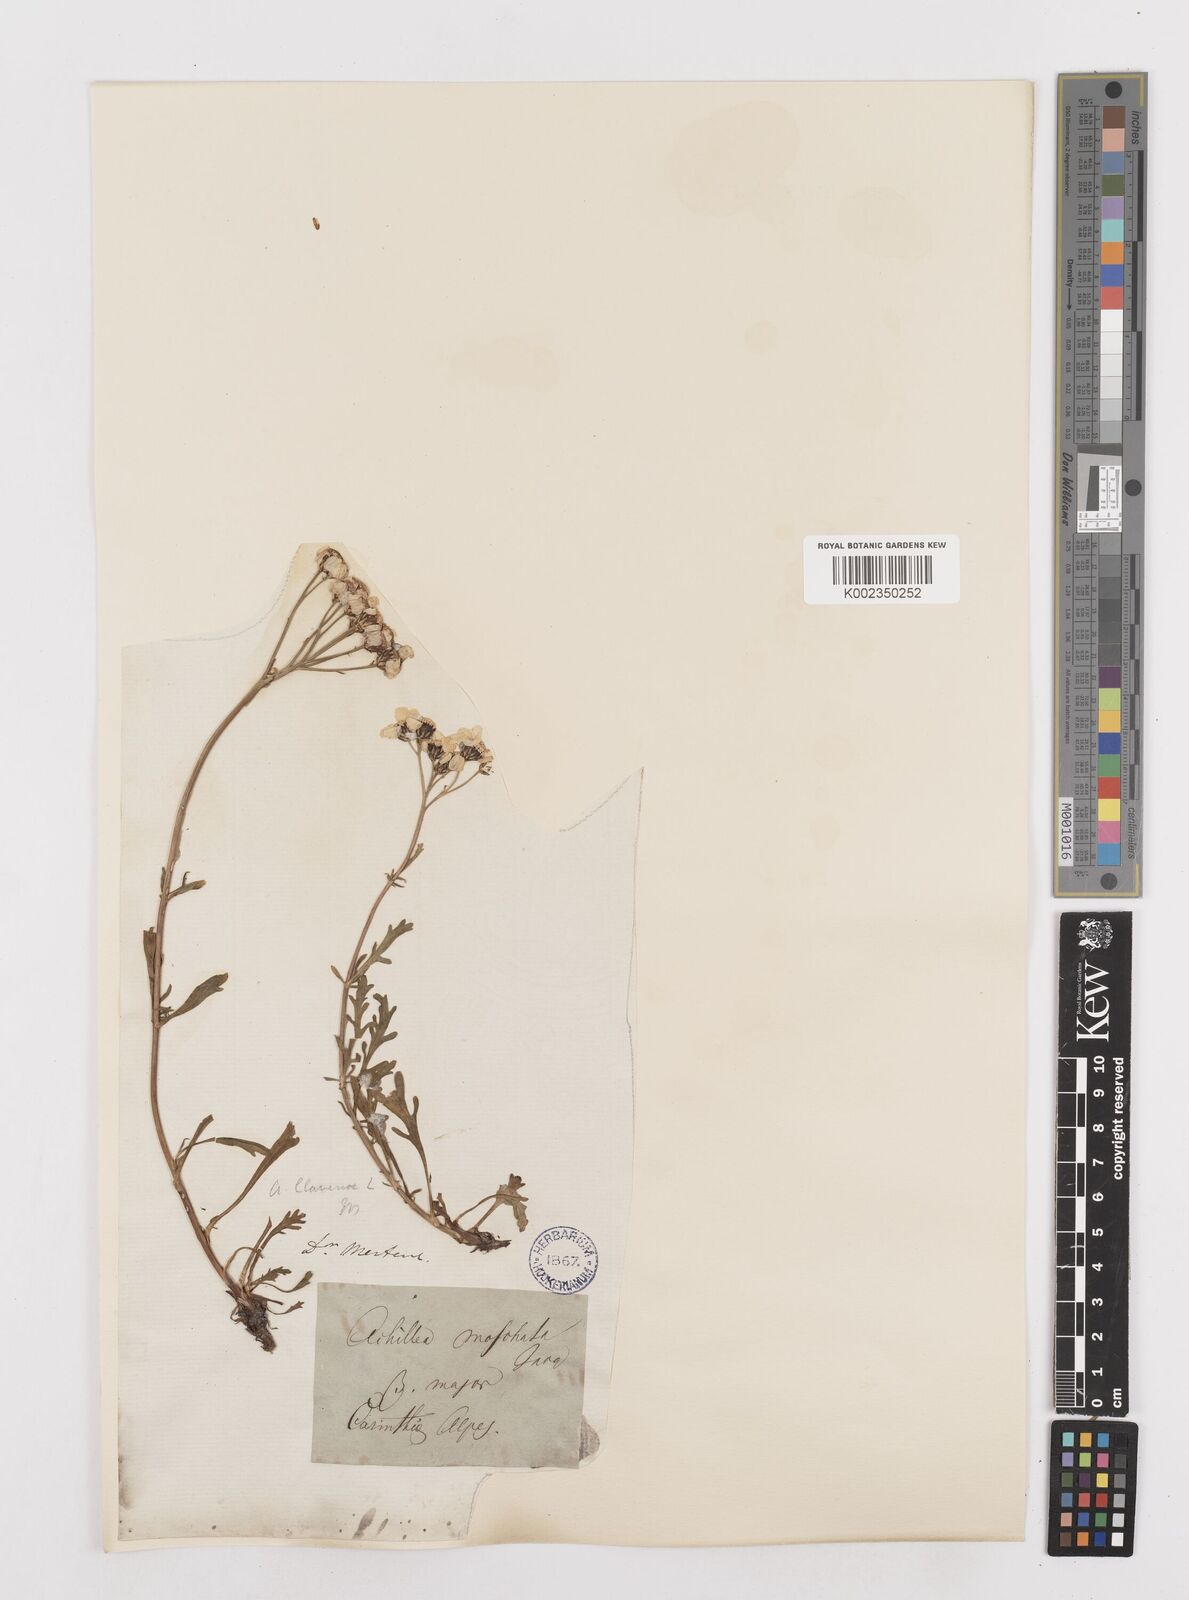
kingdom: Plantae
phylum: Tracheophyta
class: Magnoliopsida
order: Asterales
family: Asteraceae
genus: Achillea
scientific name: Achillea clavennae
